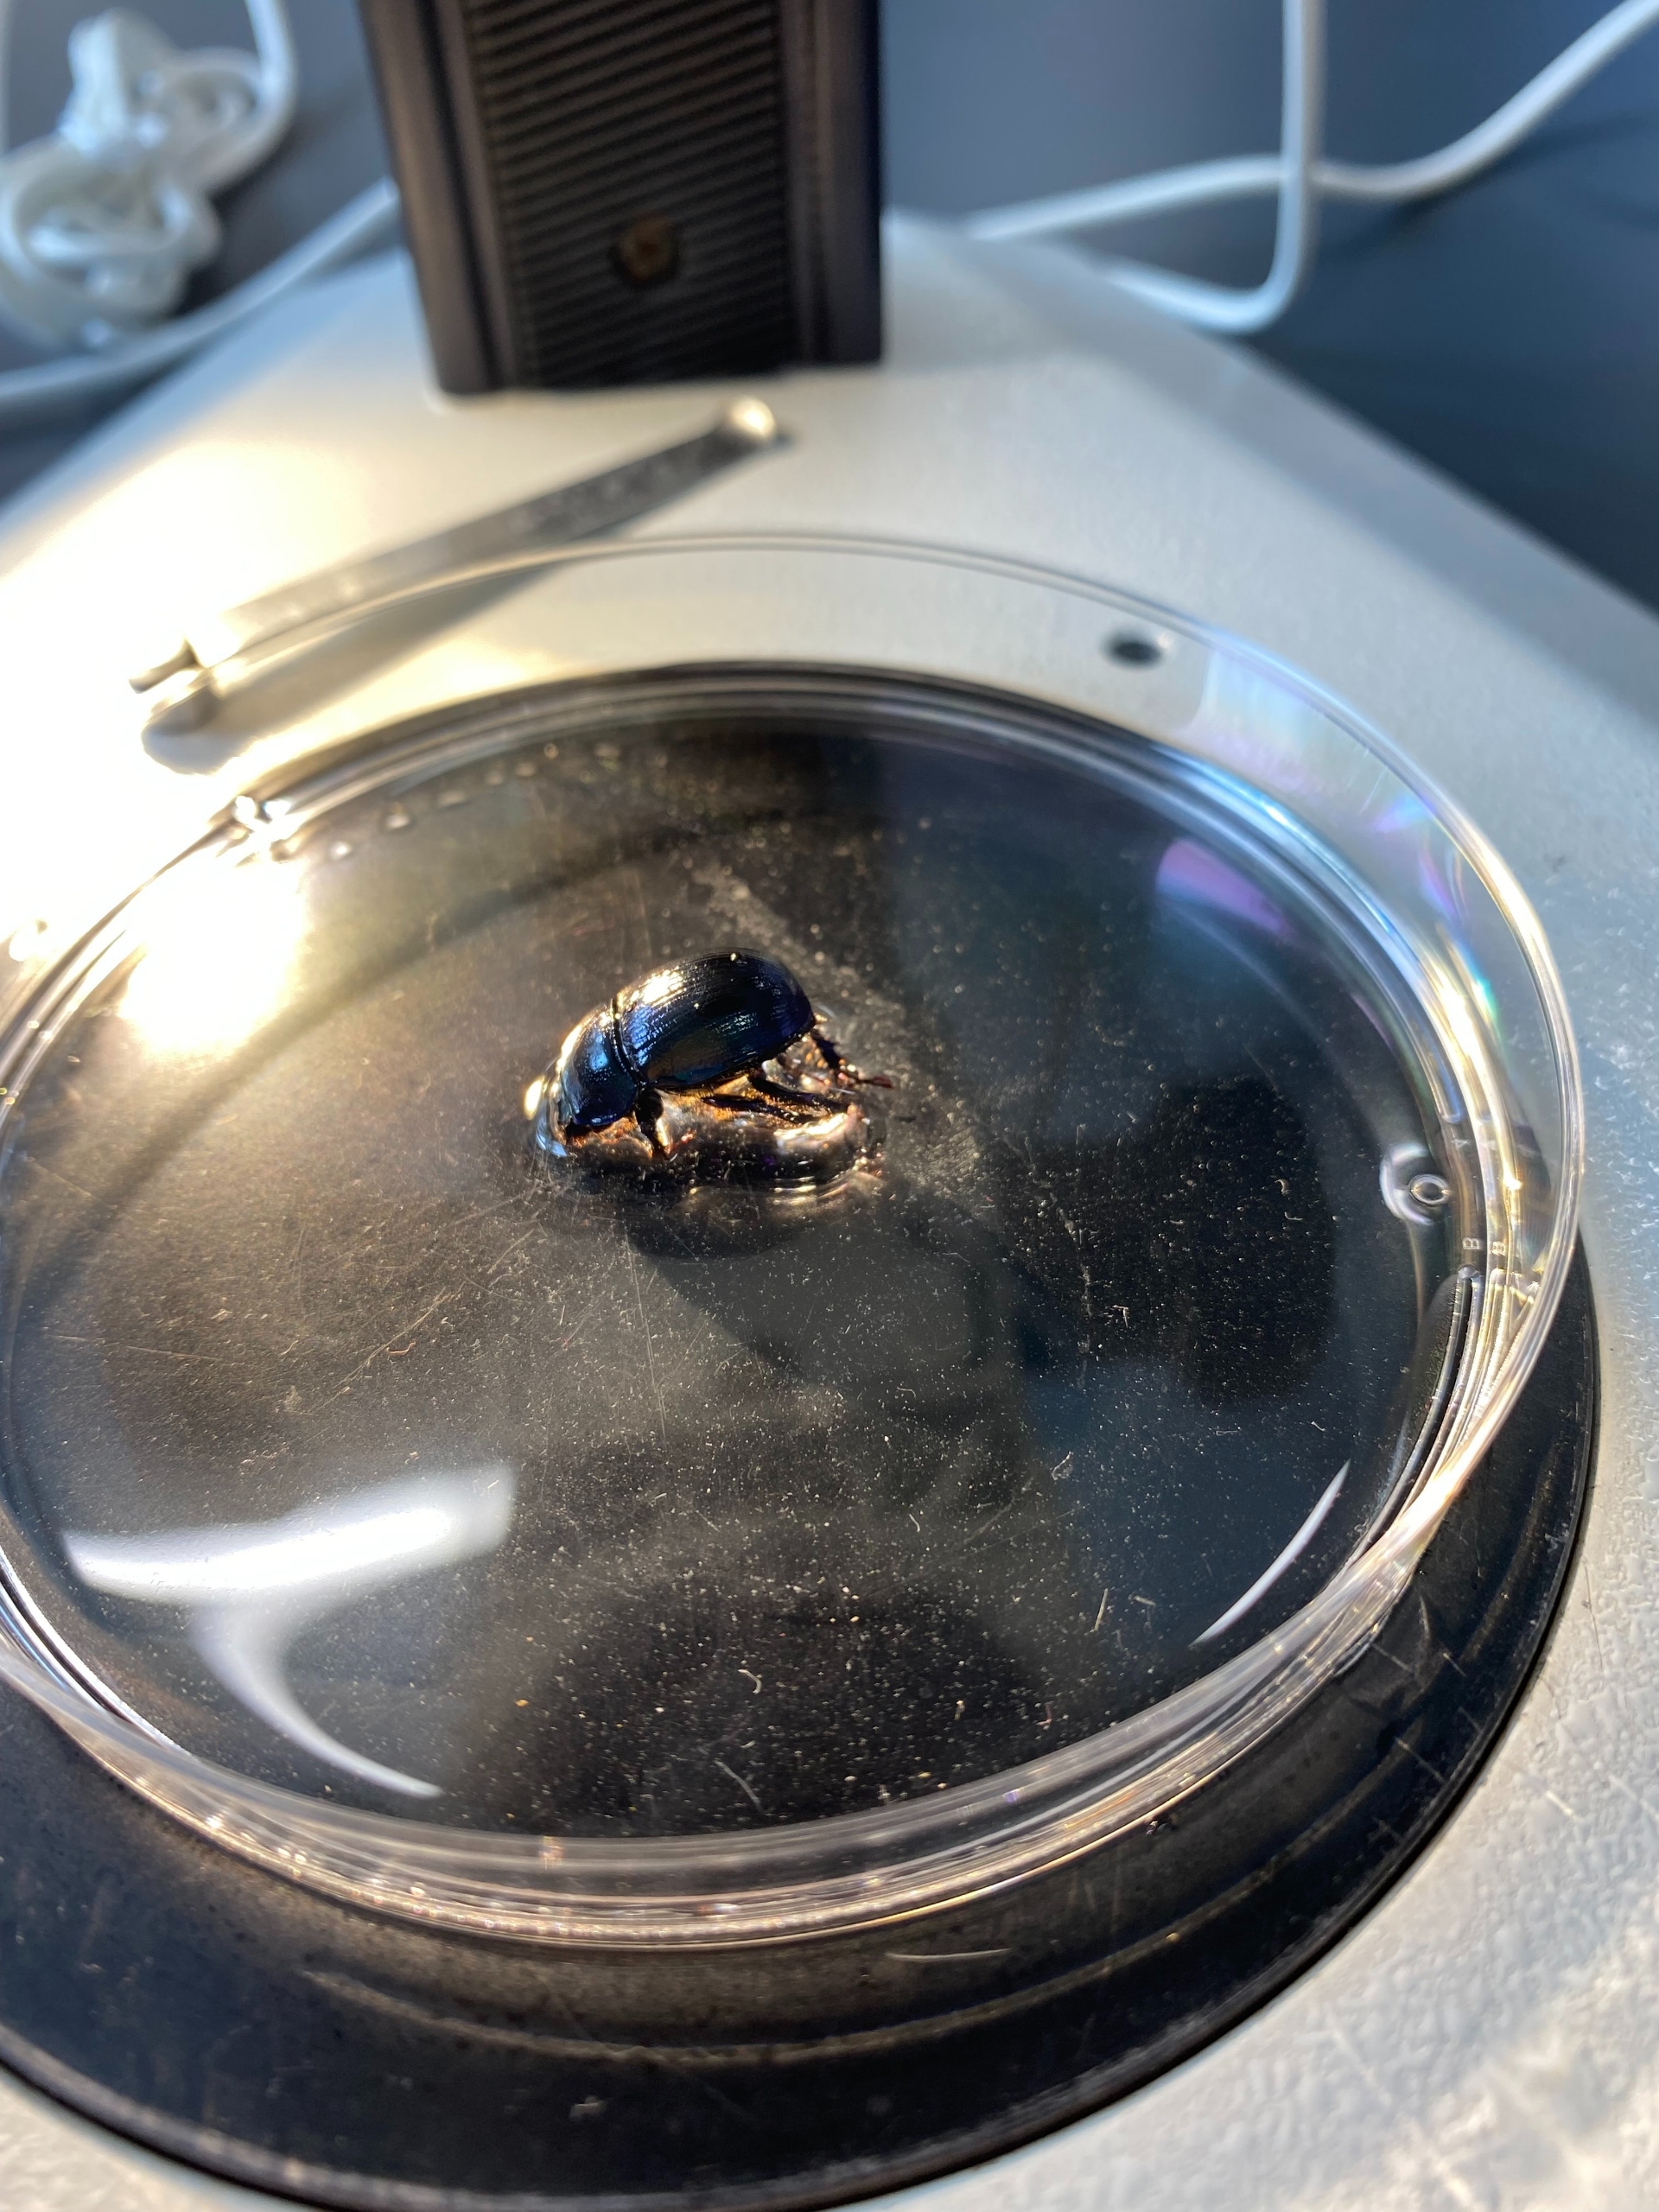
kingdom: Animalia
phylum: Arthropoda
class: Insecta
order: Coleoptera
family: Geotrupidae
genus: Anoplotrupes
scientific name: Anoplotrupes stercorosus
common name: Skovskarnbasse
